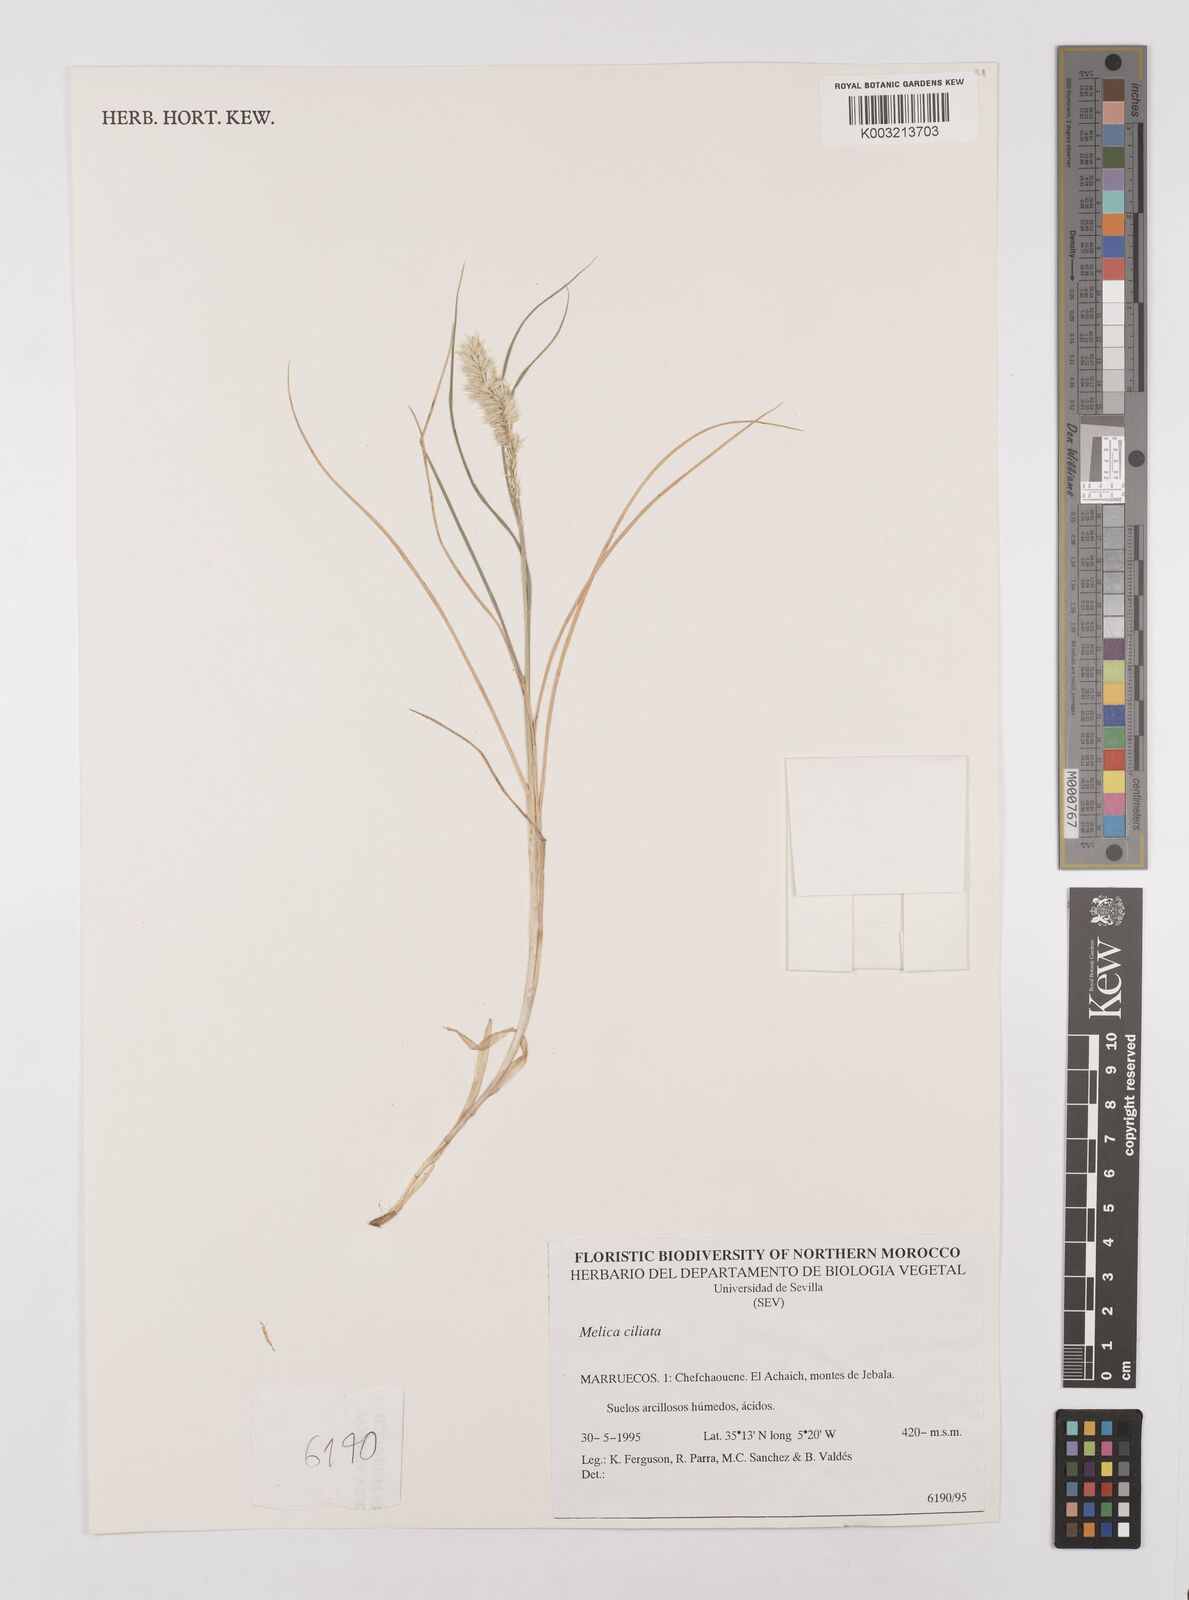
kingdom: Plantae
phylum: Tracheophyta
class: Liliopsida
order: Poales
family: Poaceae
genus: Melica
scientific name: Melica ciliata
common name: Hairy melicgrass
